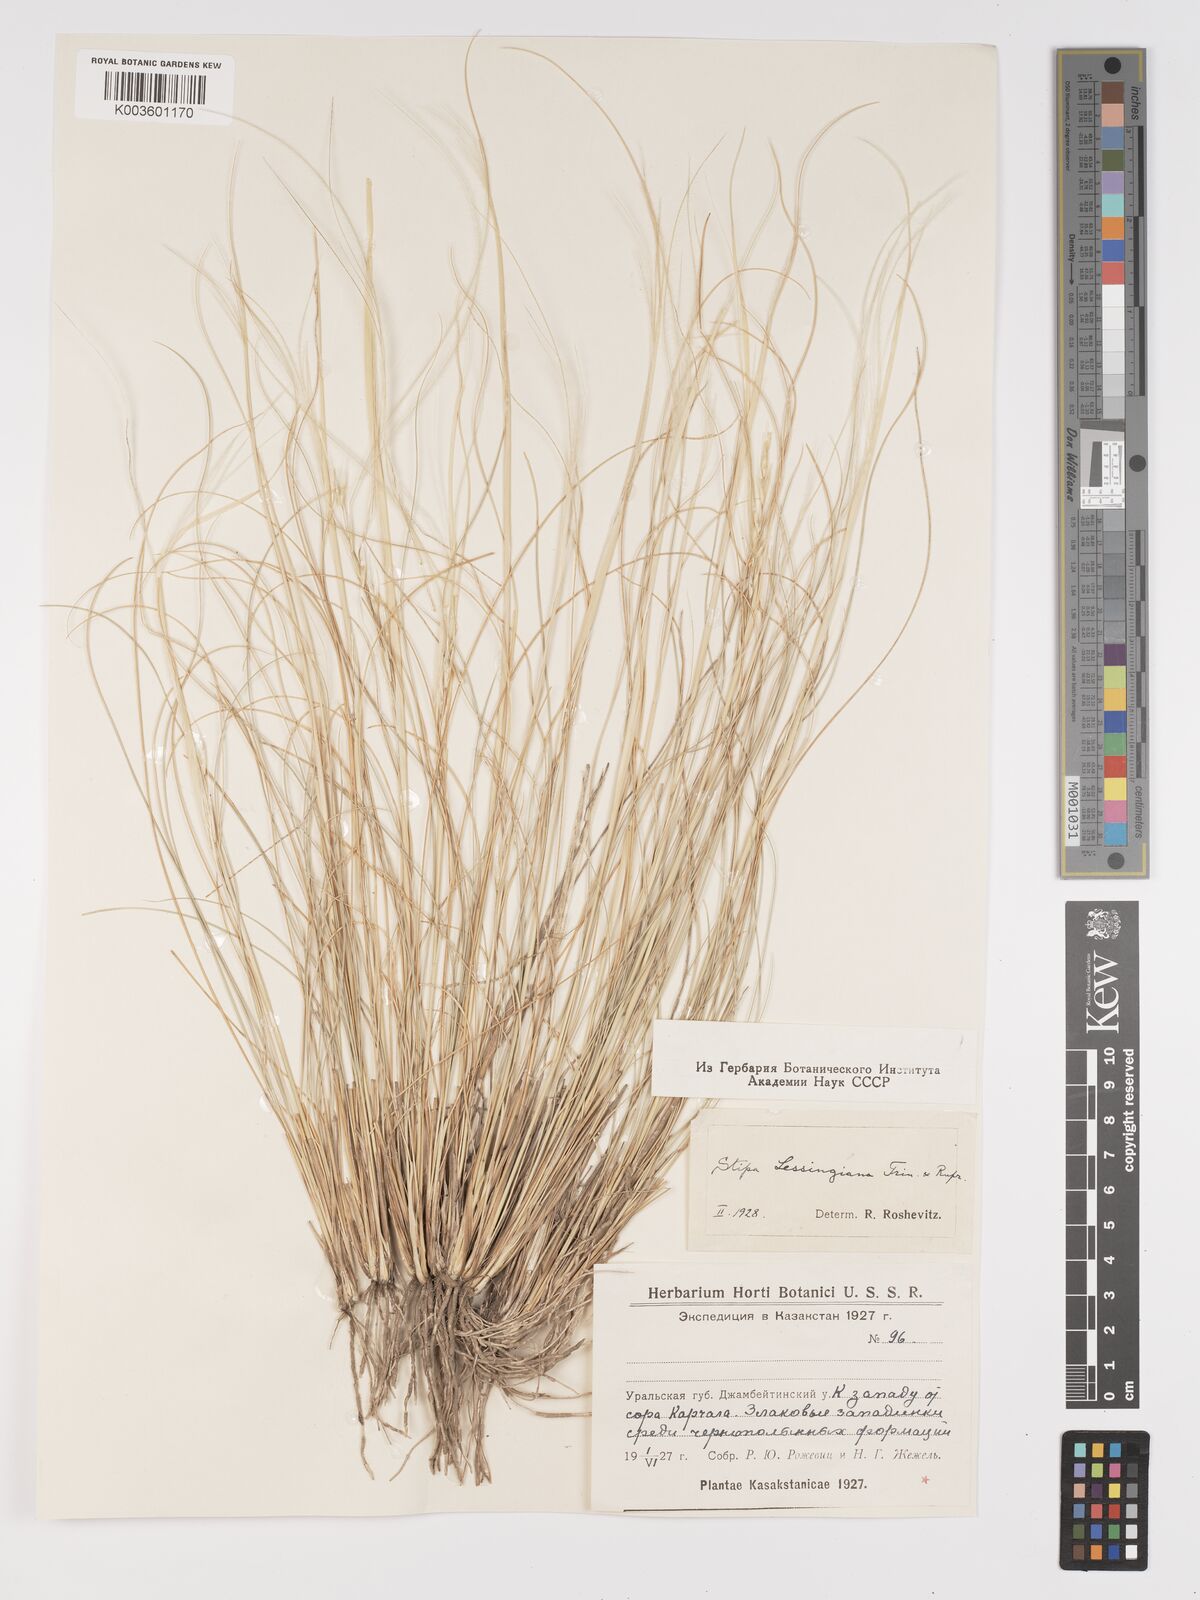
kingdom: Plantae
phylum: Tracheophyta
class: Liliopsida
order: Poales
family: Poaceae
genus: Stipa
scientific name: Stipa lessingiana
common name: Needle grass
